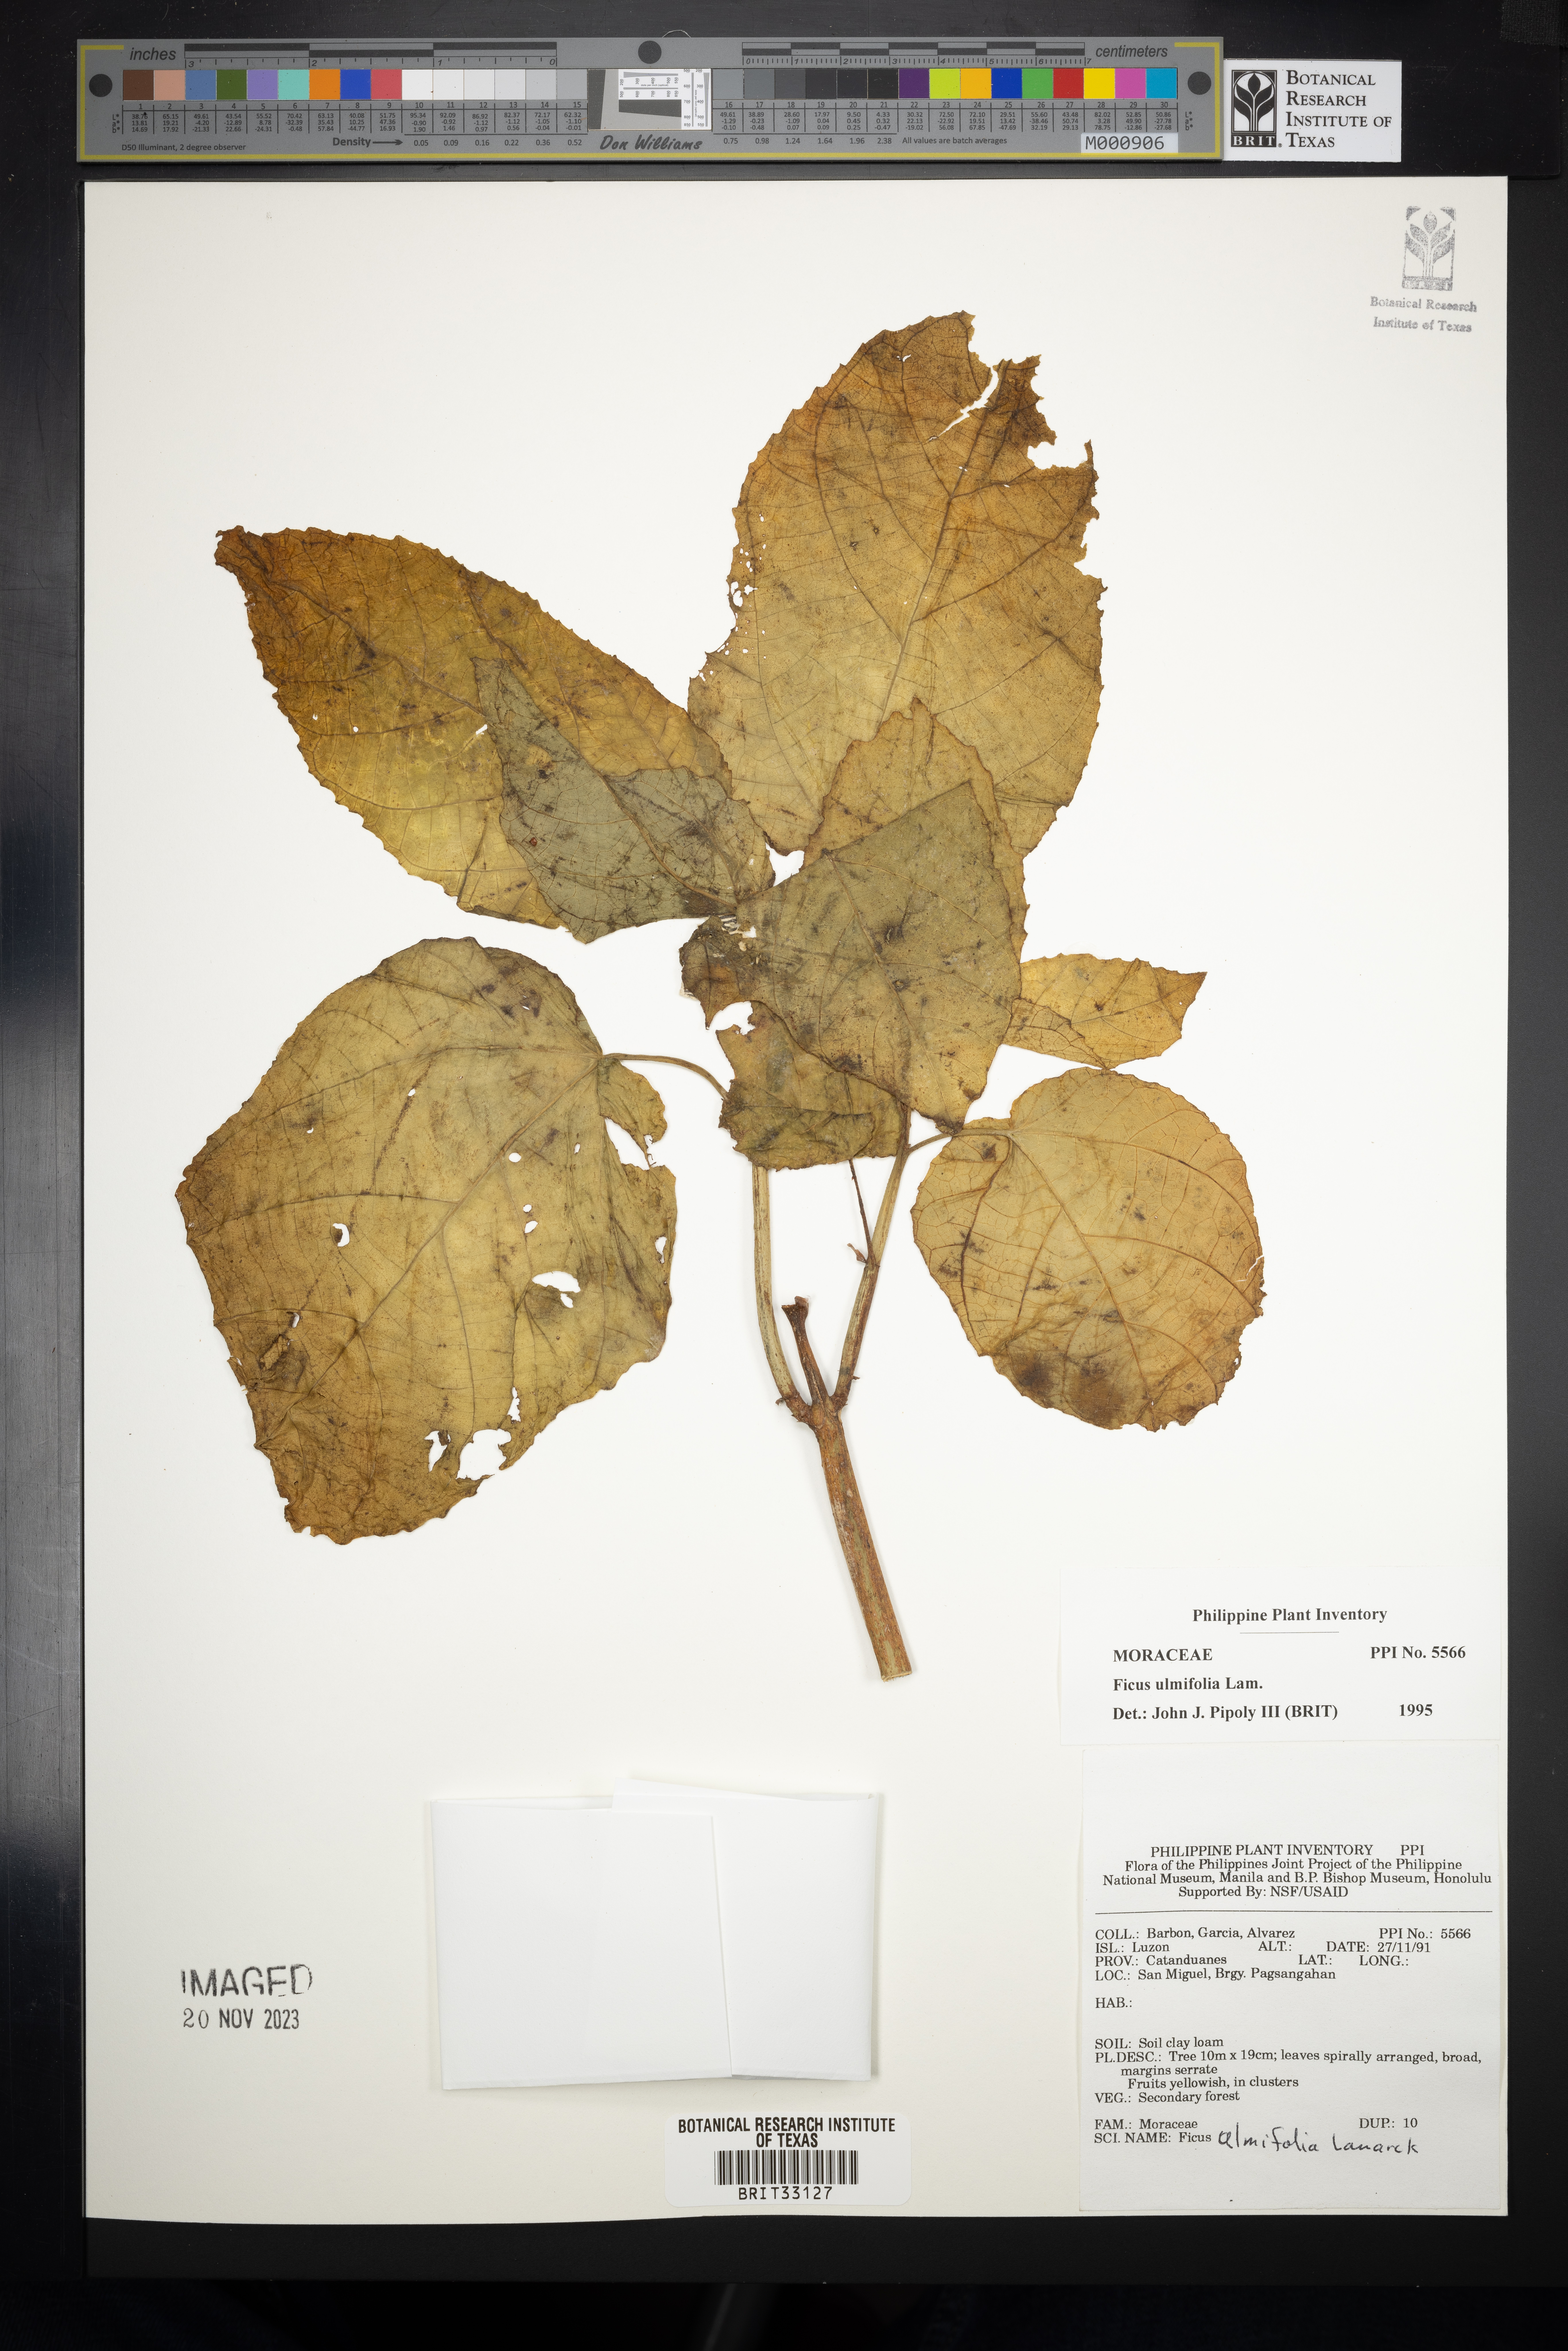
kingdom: Plantae
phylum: Tracheophyta
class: Magnoliopsida
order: Rosales
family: Moraceae
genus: Ficus
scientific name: Ficus ulmifolia
